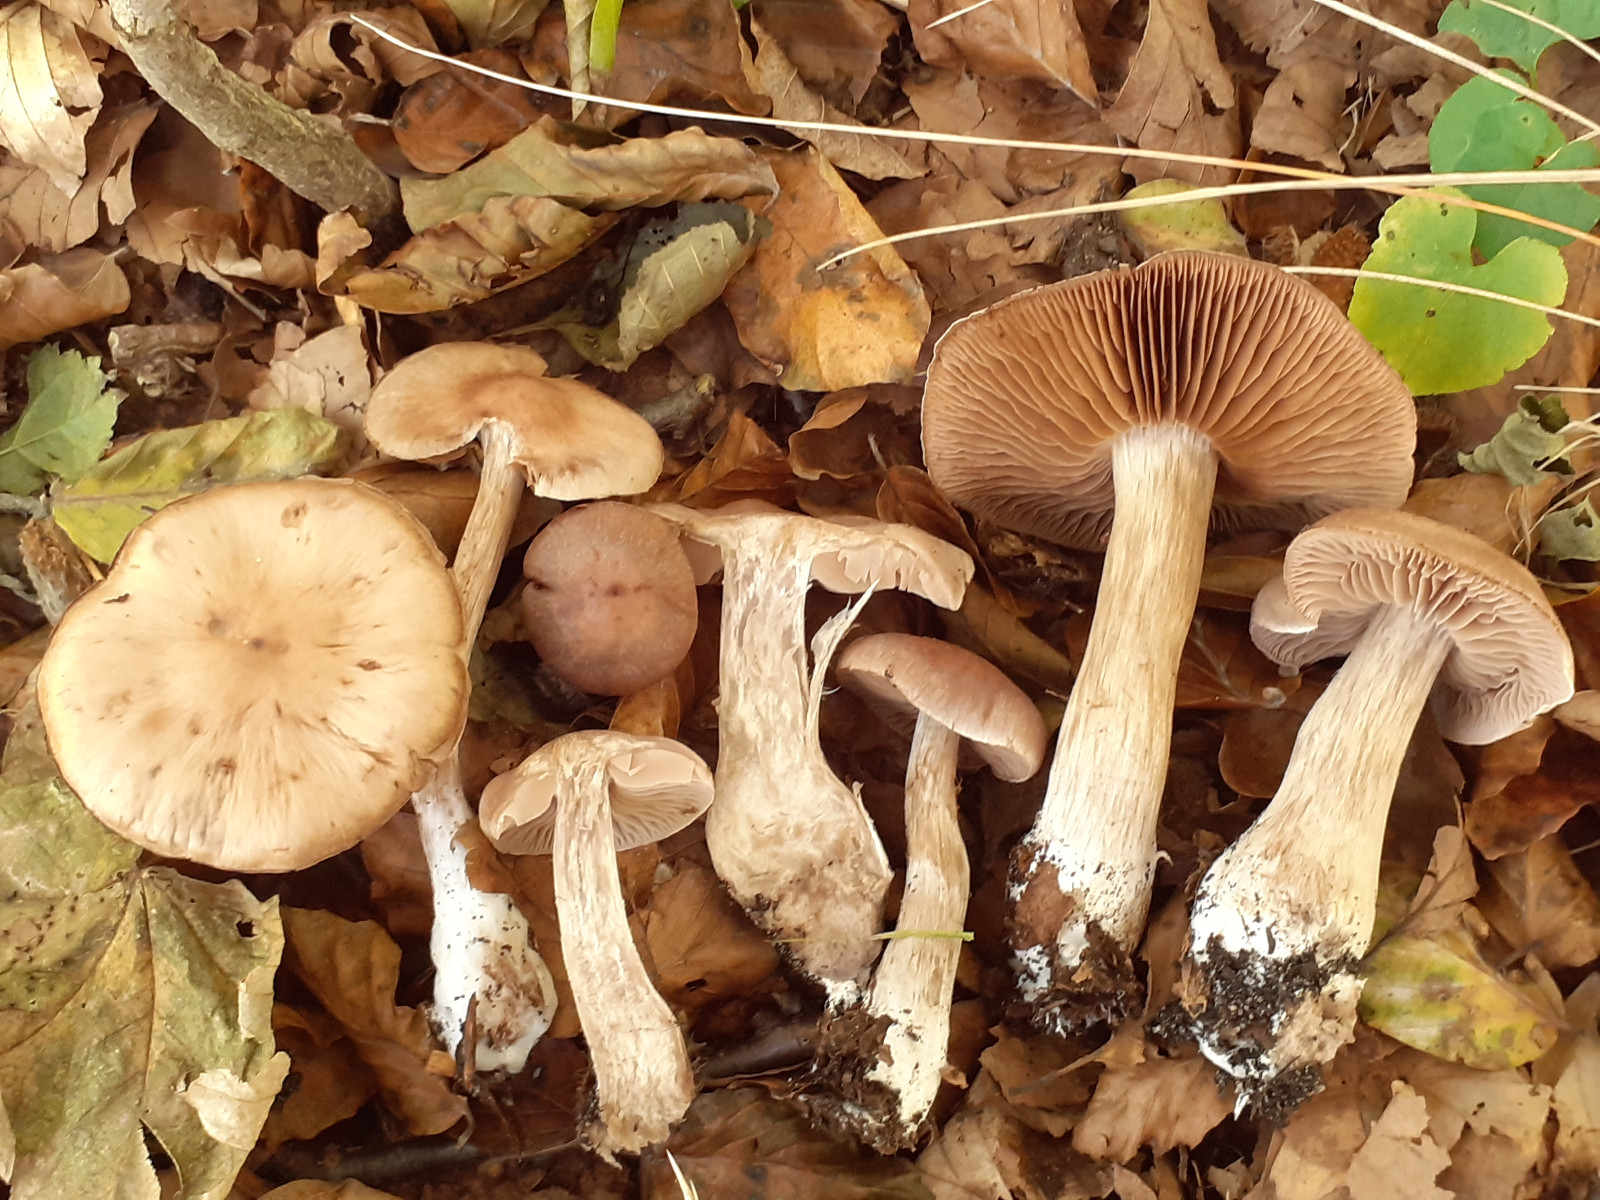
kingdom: Fungi
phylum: Basidiomycota
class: Agaricomycetes
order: Agaricales
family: Cortinariaceae
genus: Cortinarius
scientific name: Cortinarius heatherae
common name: mørkprikket slørhat
